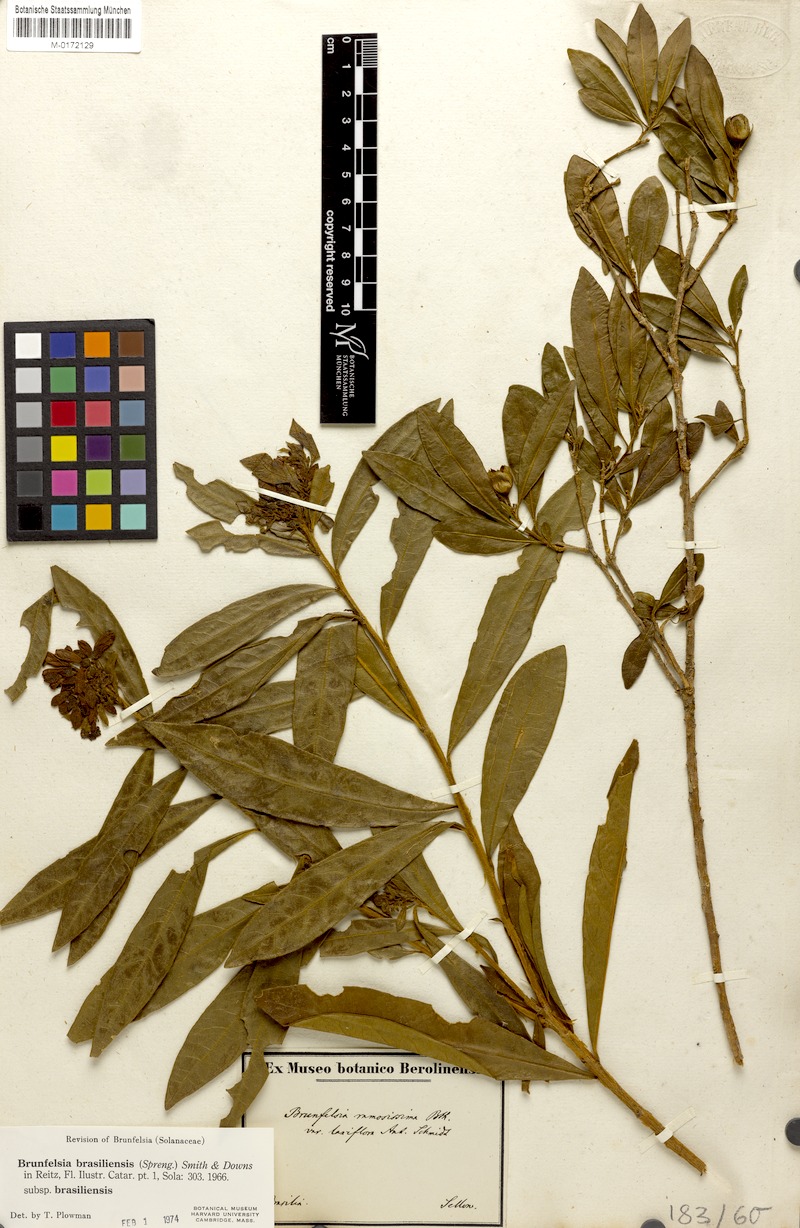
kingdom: Plantae
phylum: Tracheophyta
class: Magnoliopsida
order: Solanales
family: Solanaceae
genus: Brunfelsia
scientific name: Brunfelsia brasiliensis
